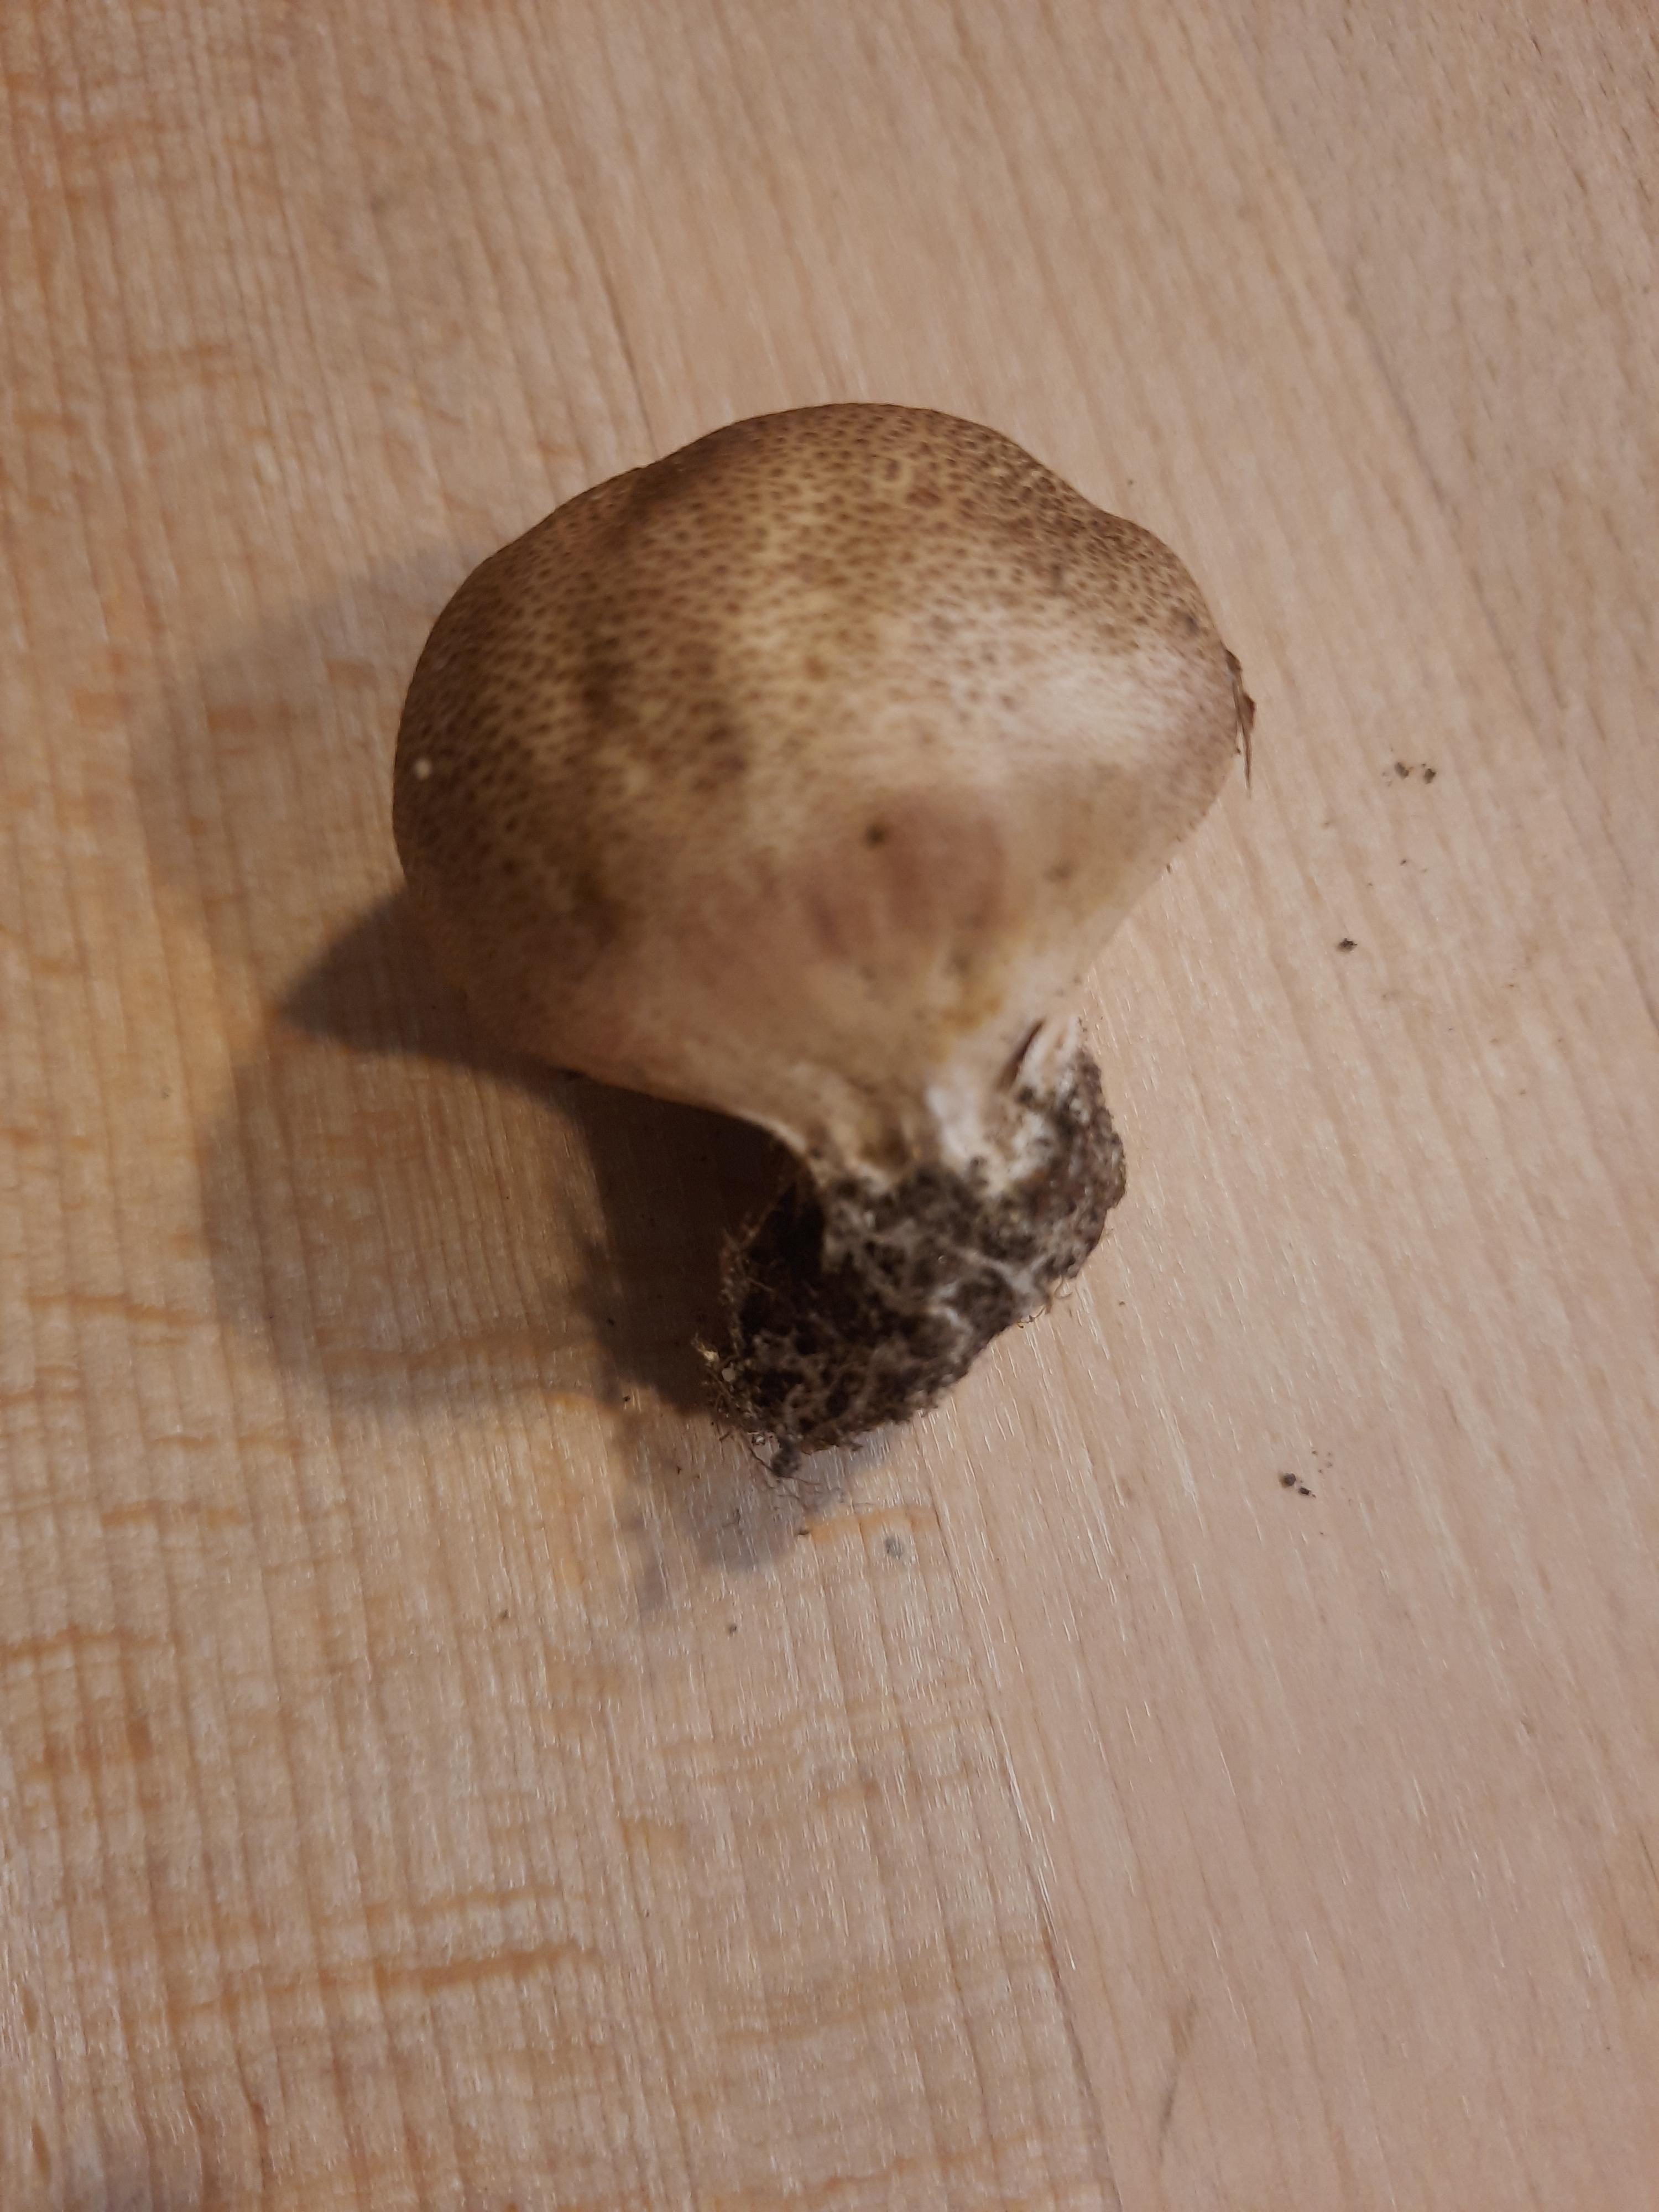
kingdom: Fungi
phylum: Basidiomycota
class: Agaricomycetes
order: Boletales
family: Sclerodermataceae
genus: Scleroderma
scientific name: Scleroderma areolatum
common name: plettet bruskbold
